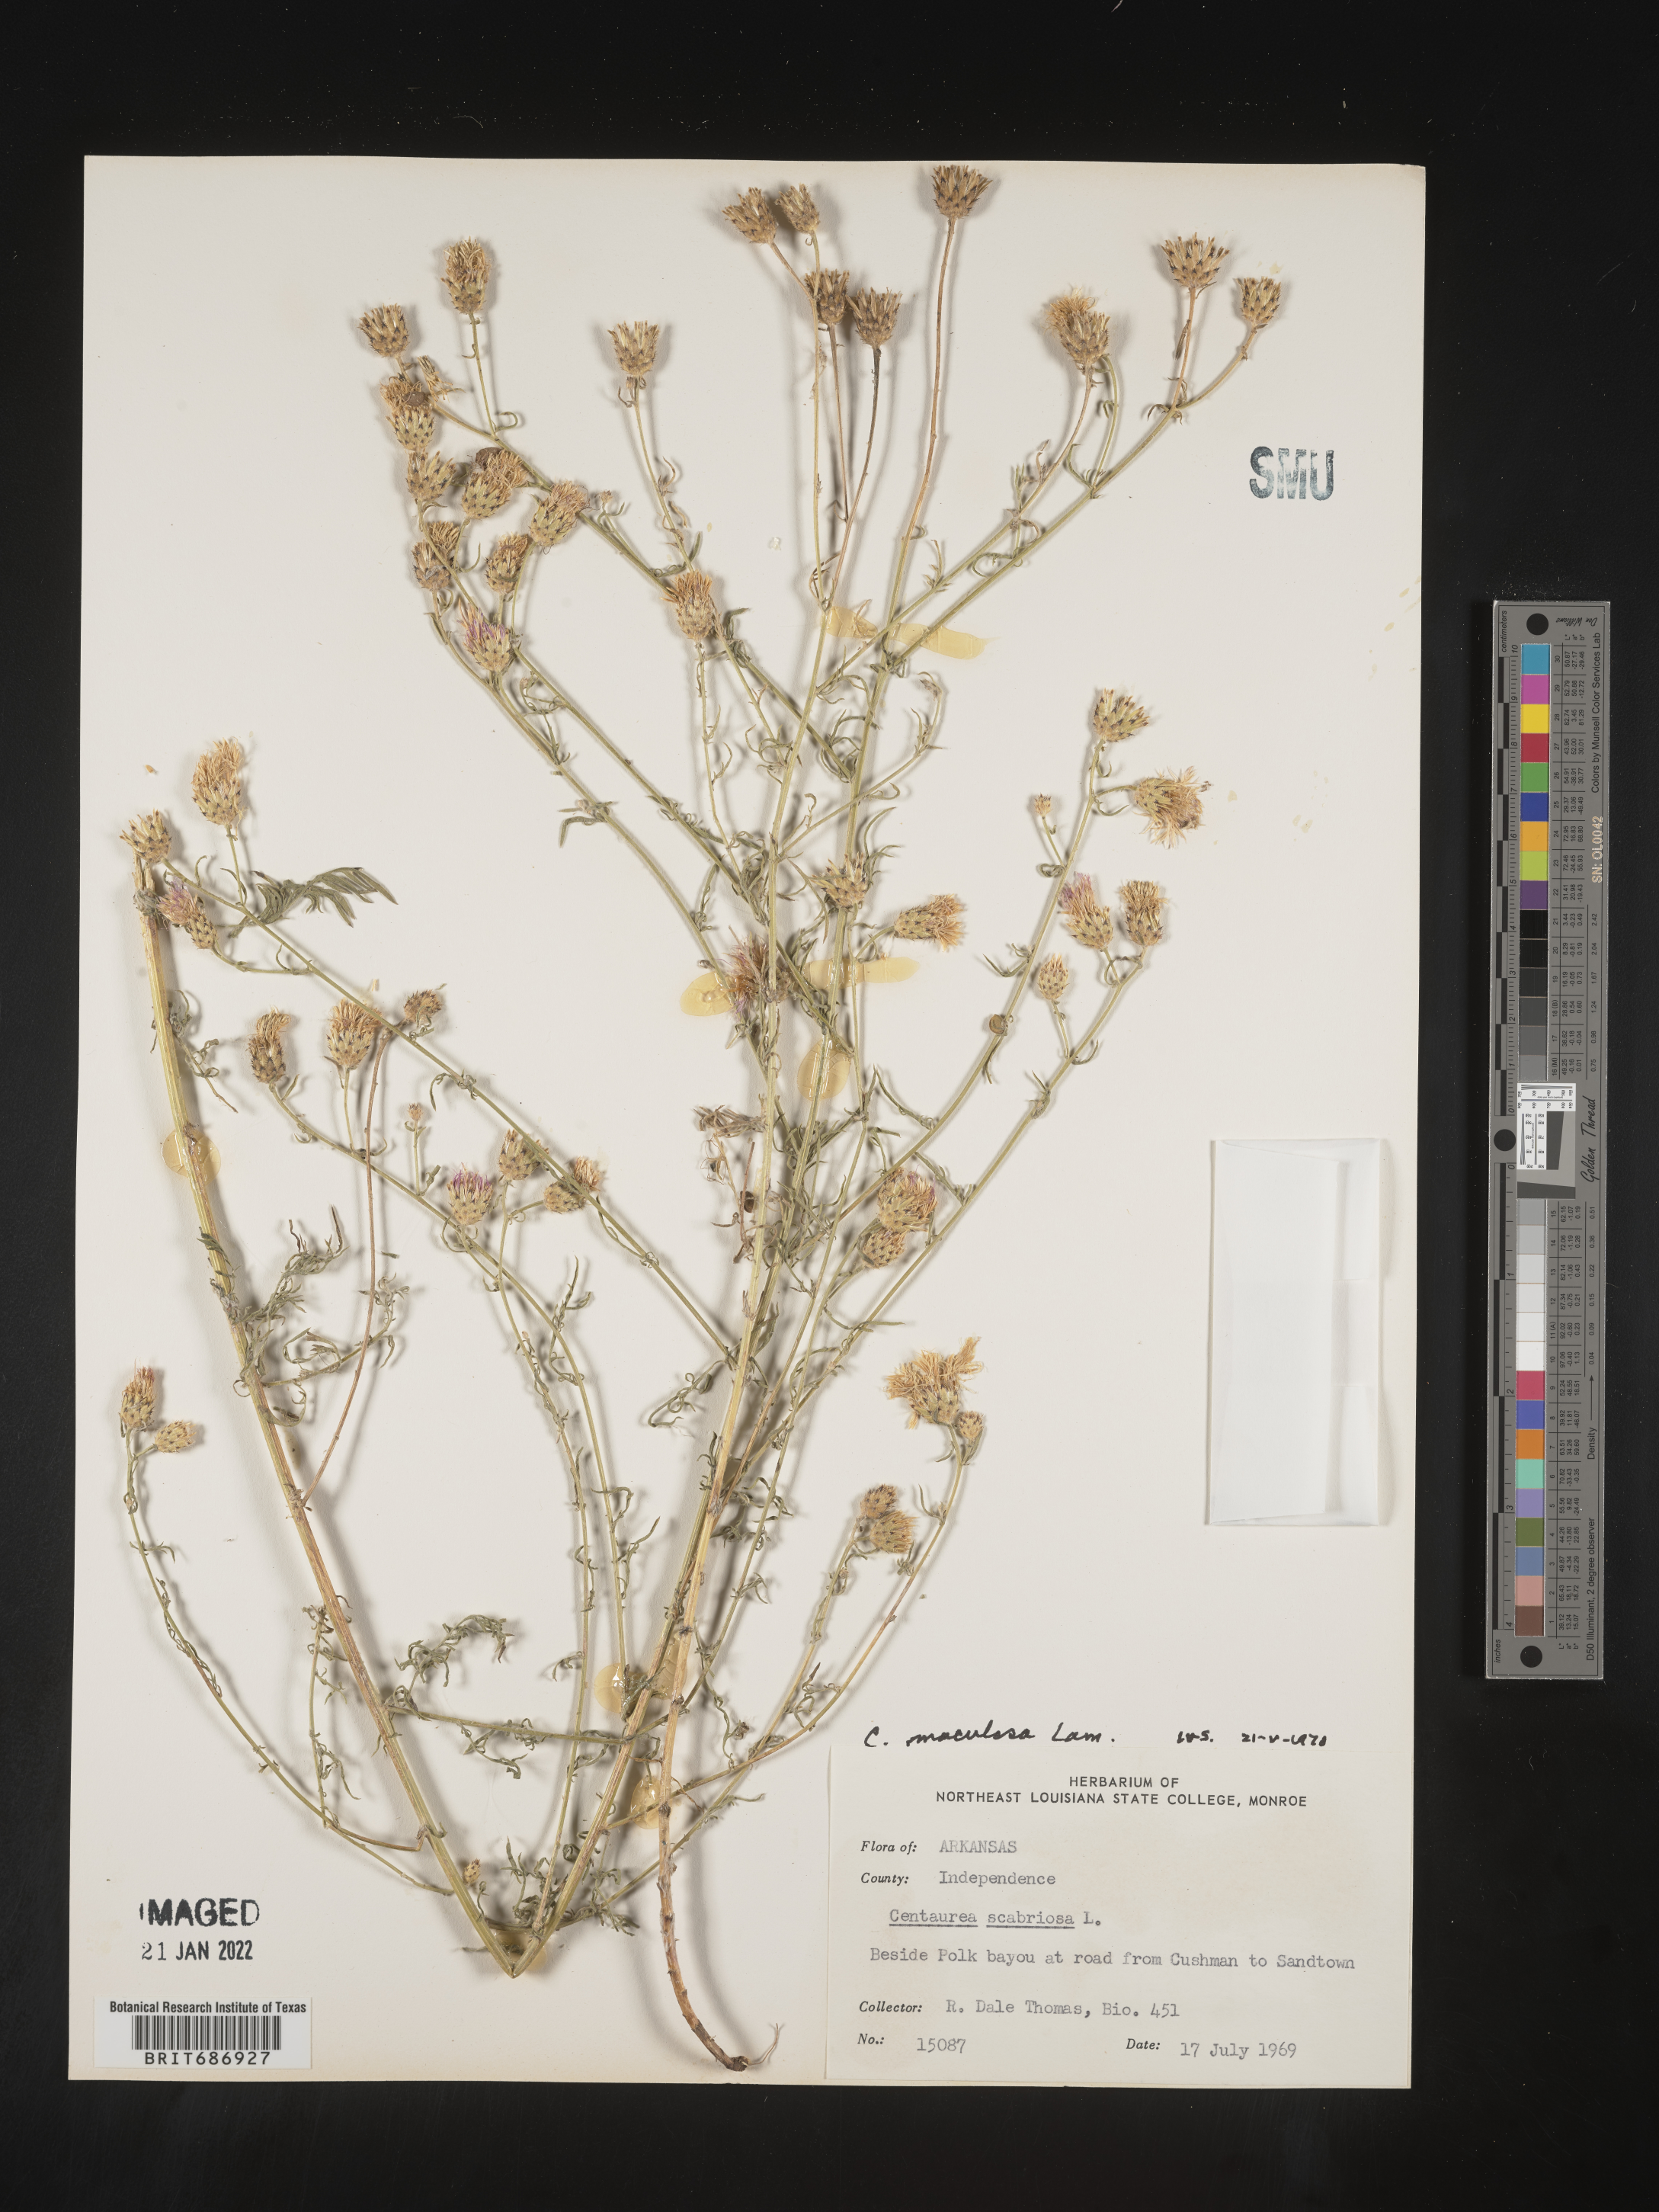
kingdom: Plantae
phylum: Tracheophyta
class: Magnoliopsida
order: Asterales
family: Asteraceae
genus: Centaurea
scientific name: Centaurea stoebe
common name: Spotted knapweed
